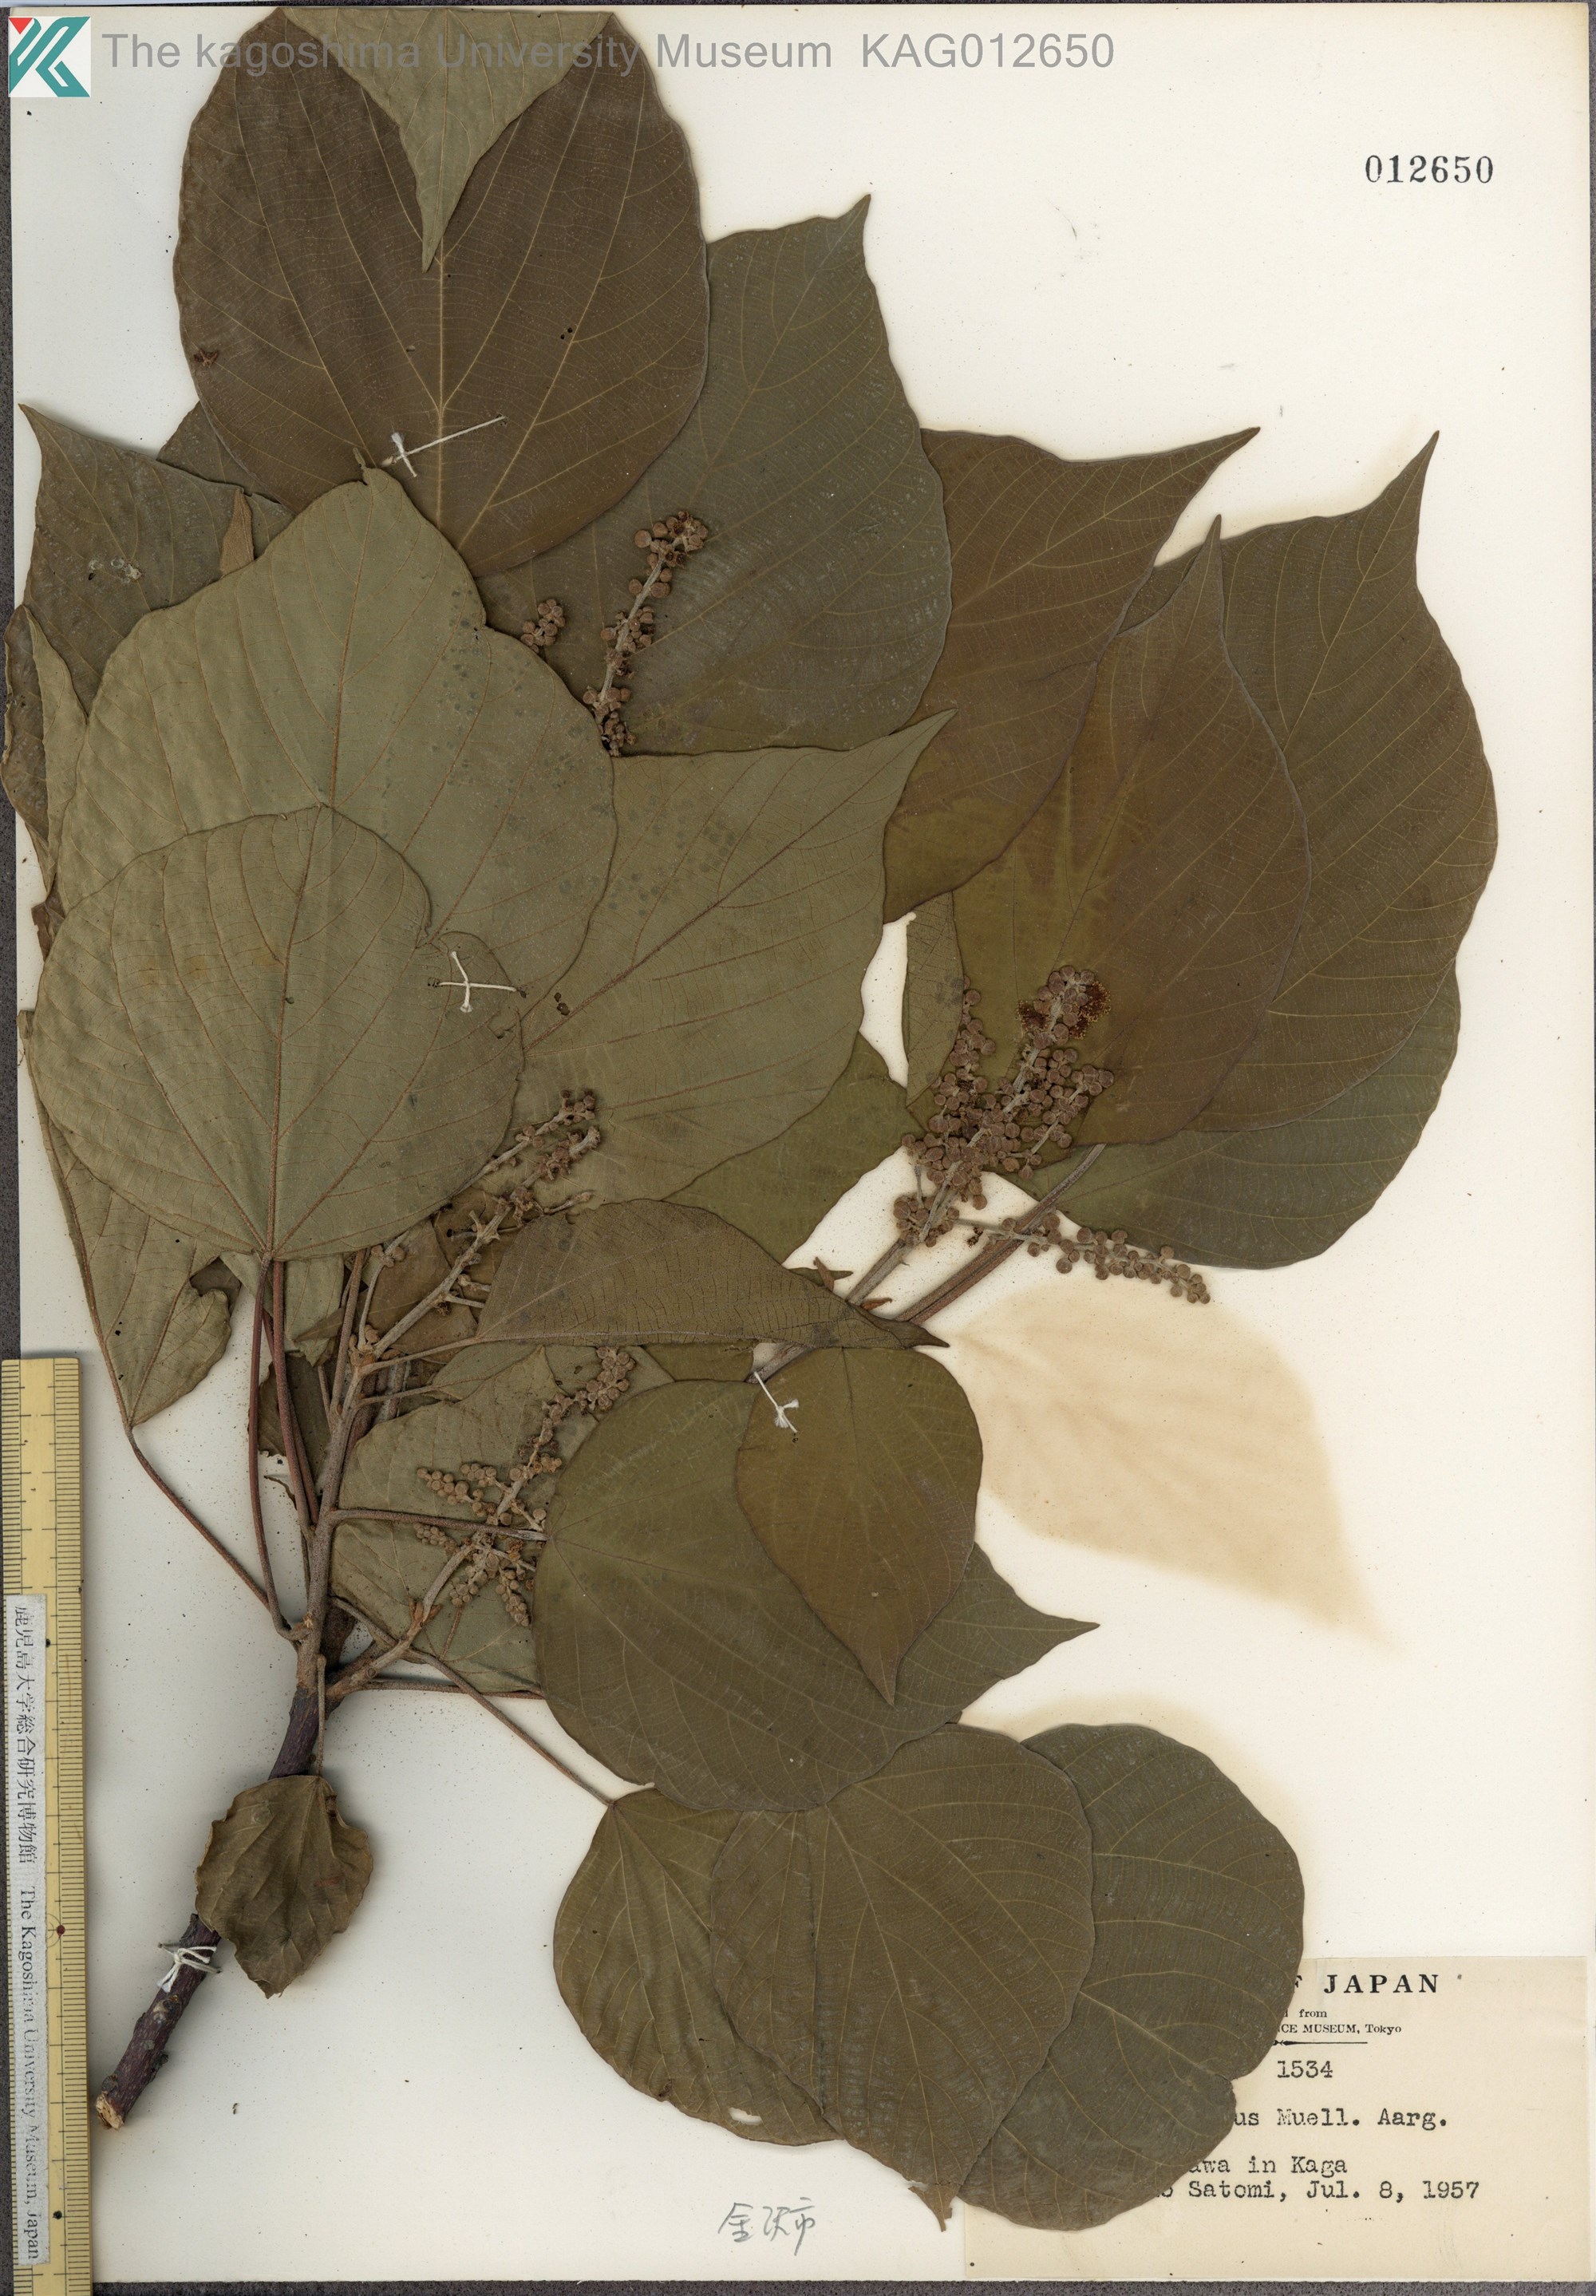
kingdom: Plantae
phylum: Tracheophyta
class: Magnoliopsida
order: Malpighiales
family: Euphorbiaceae
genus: Mallotus
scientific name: Mallotus japonicus
